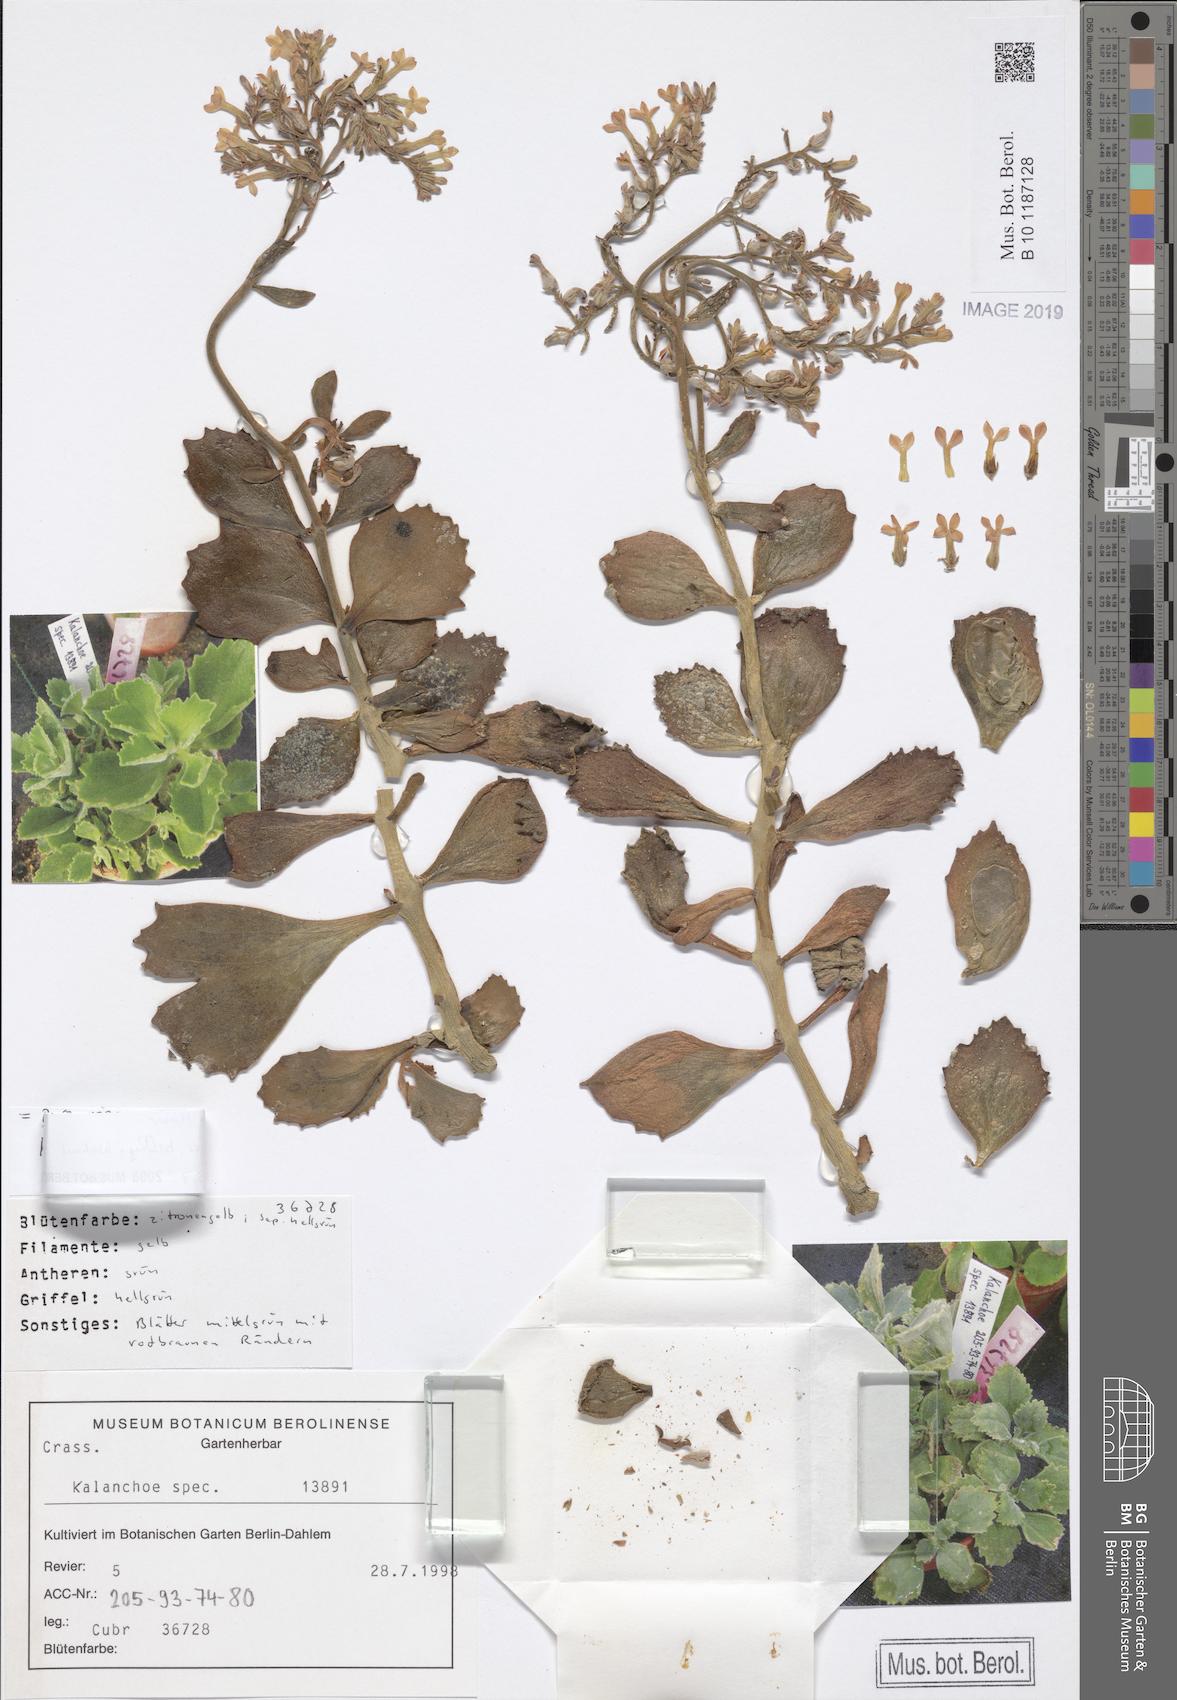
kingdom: Plantae
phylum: Tracheophyta
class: Magnoliopsida
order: Saxifragales
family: Crassulaceae
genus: Kalanchoe
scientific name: Kalanchoe citrina
